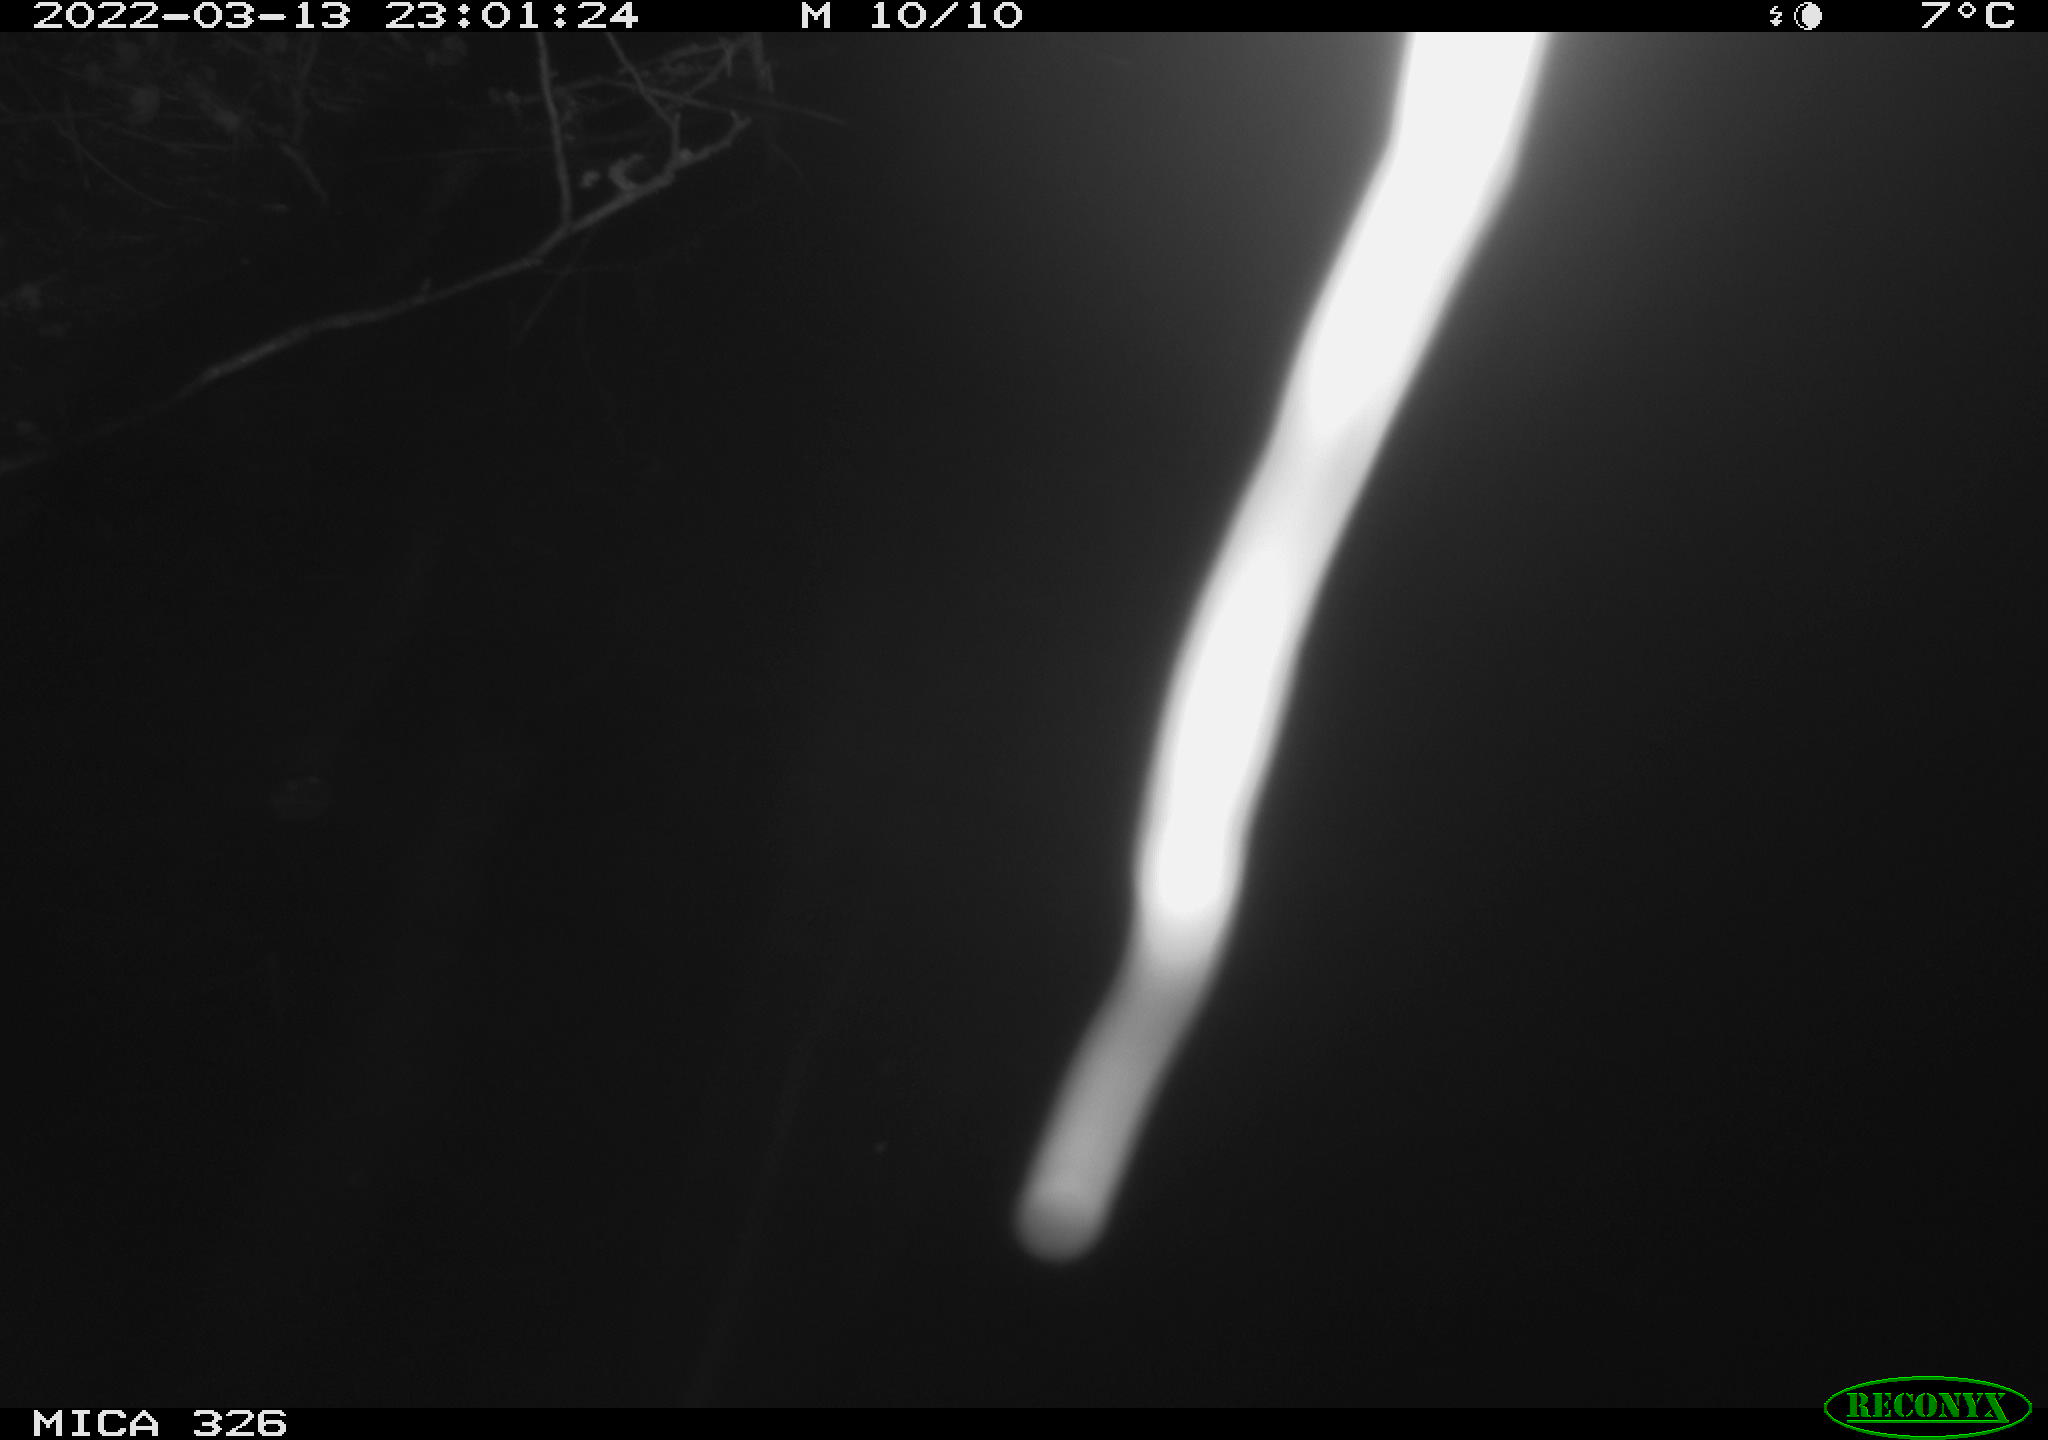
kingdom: Animalia
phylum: Chordata
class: Mammalia
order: Rodentia
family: Cricetidae
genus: Ondatra
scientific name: Ondatra zibethicus
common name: Muskrat
